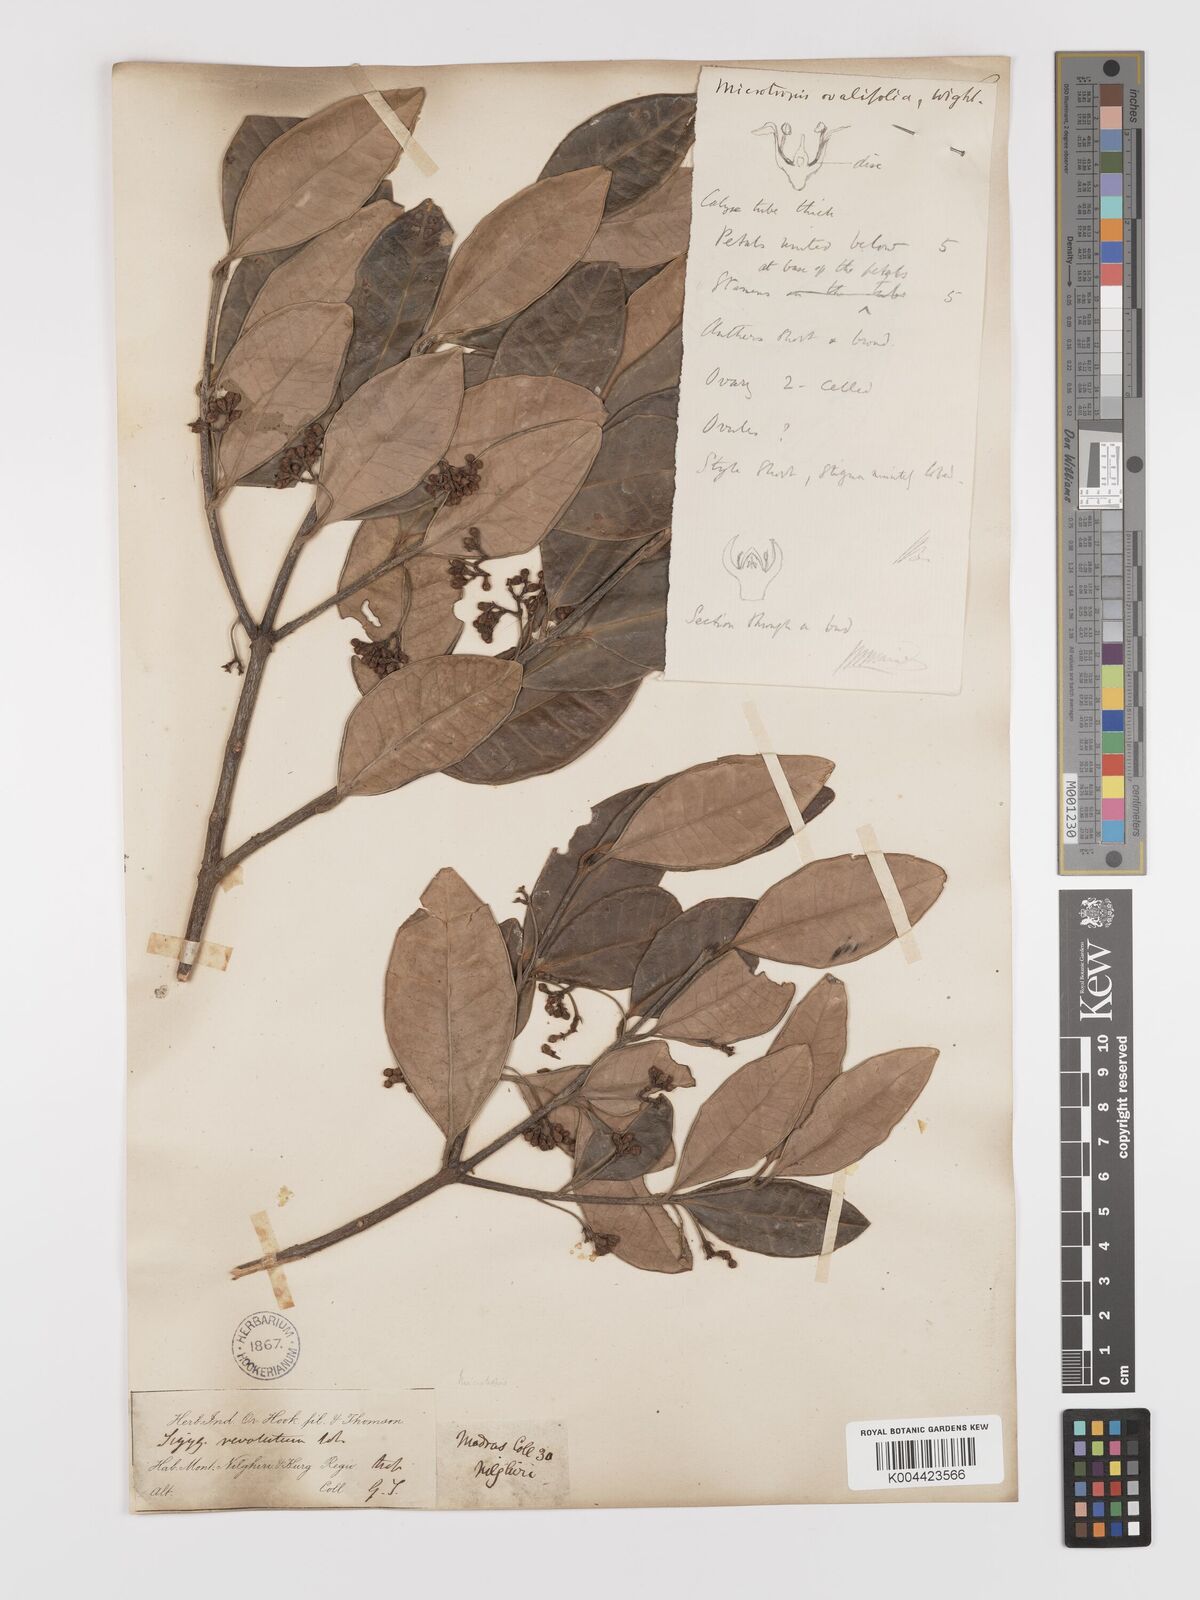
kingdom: Plantae
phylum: Tracheophyta
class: Magnoliopsida
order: Celastrales
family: Celastraceae
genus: Microtropis
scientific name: Microtropis microcarpa
